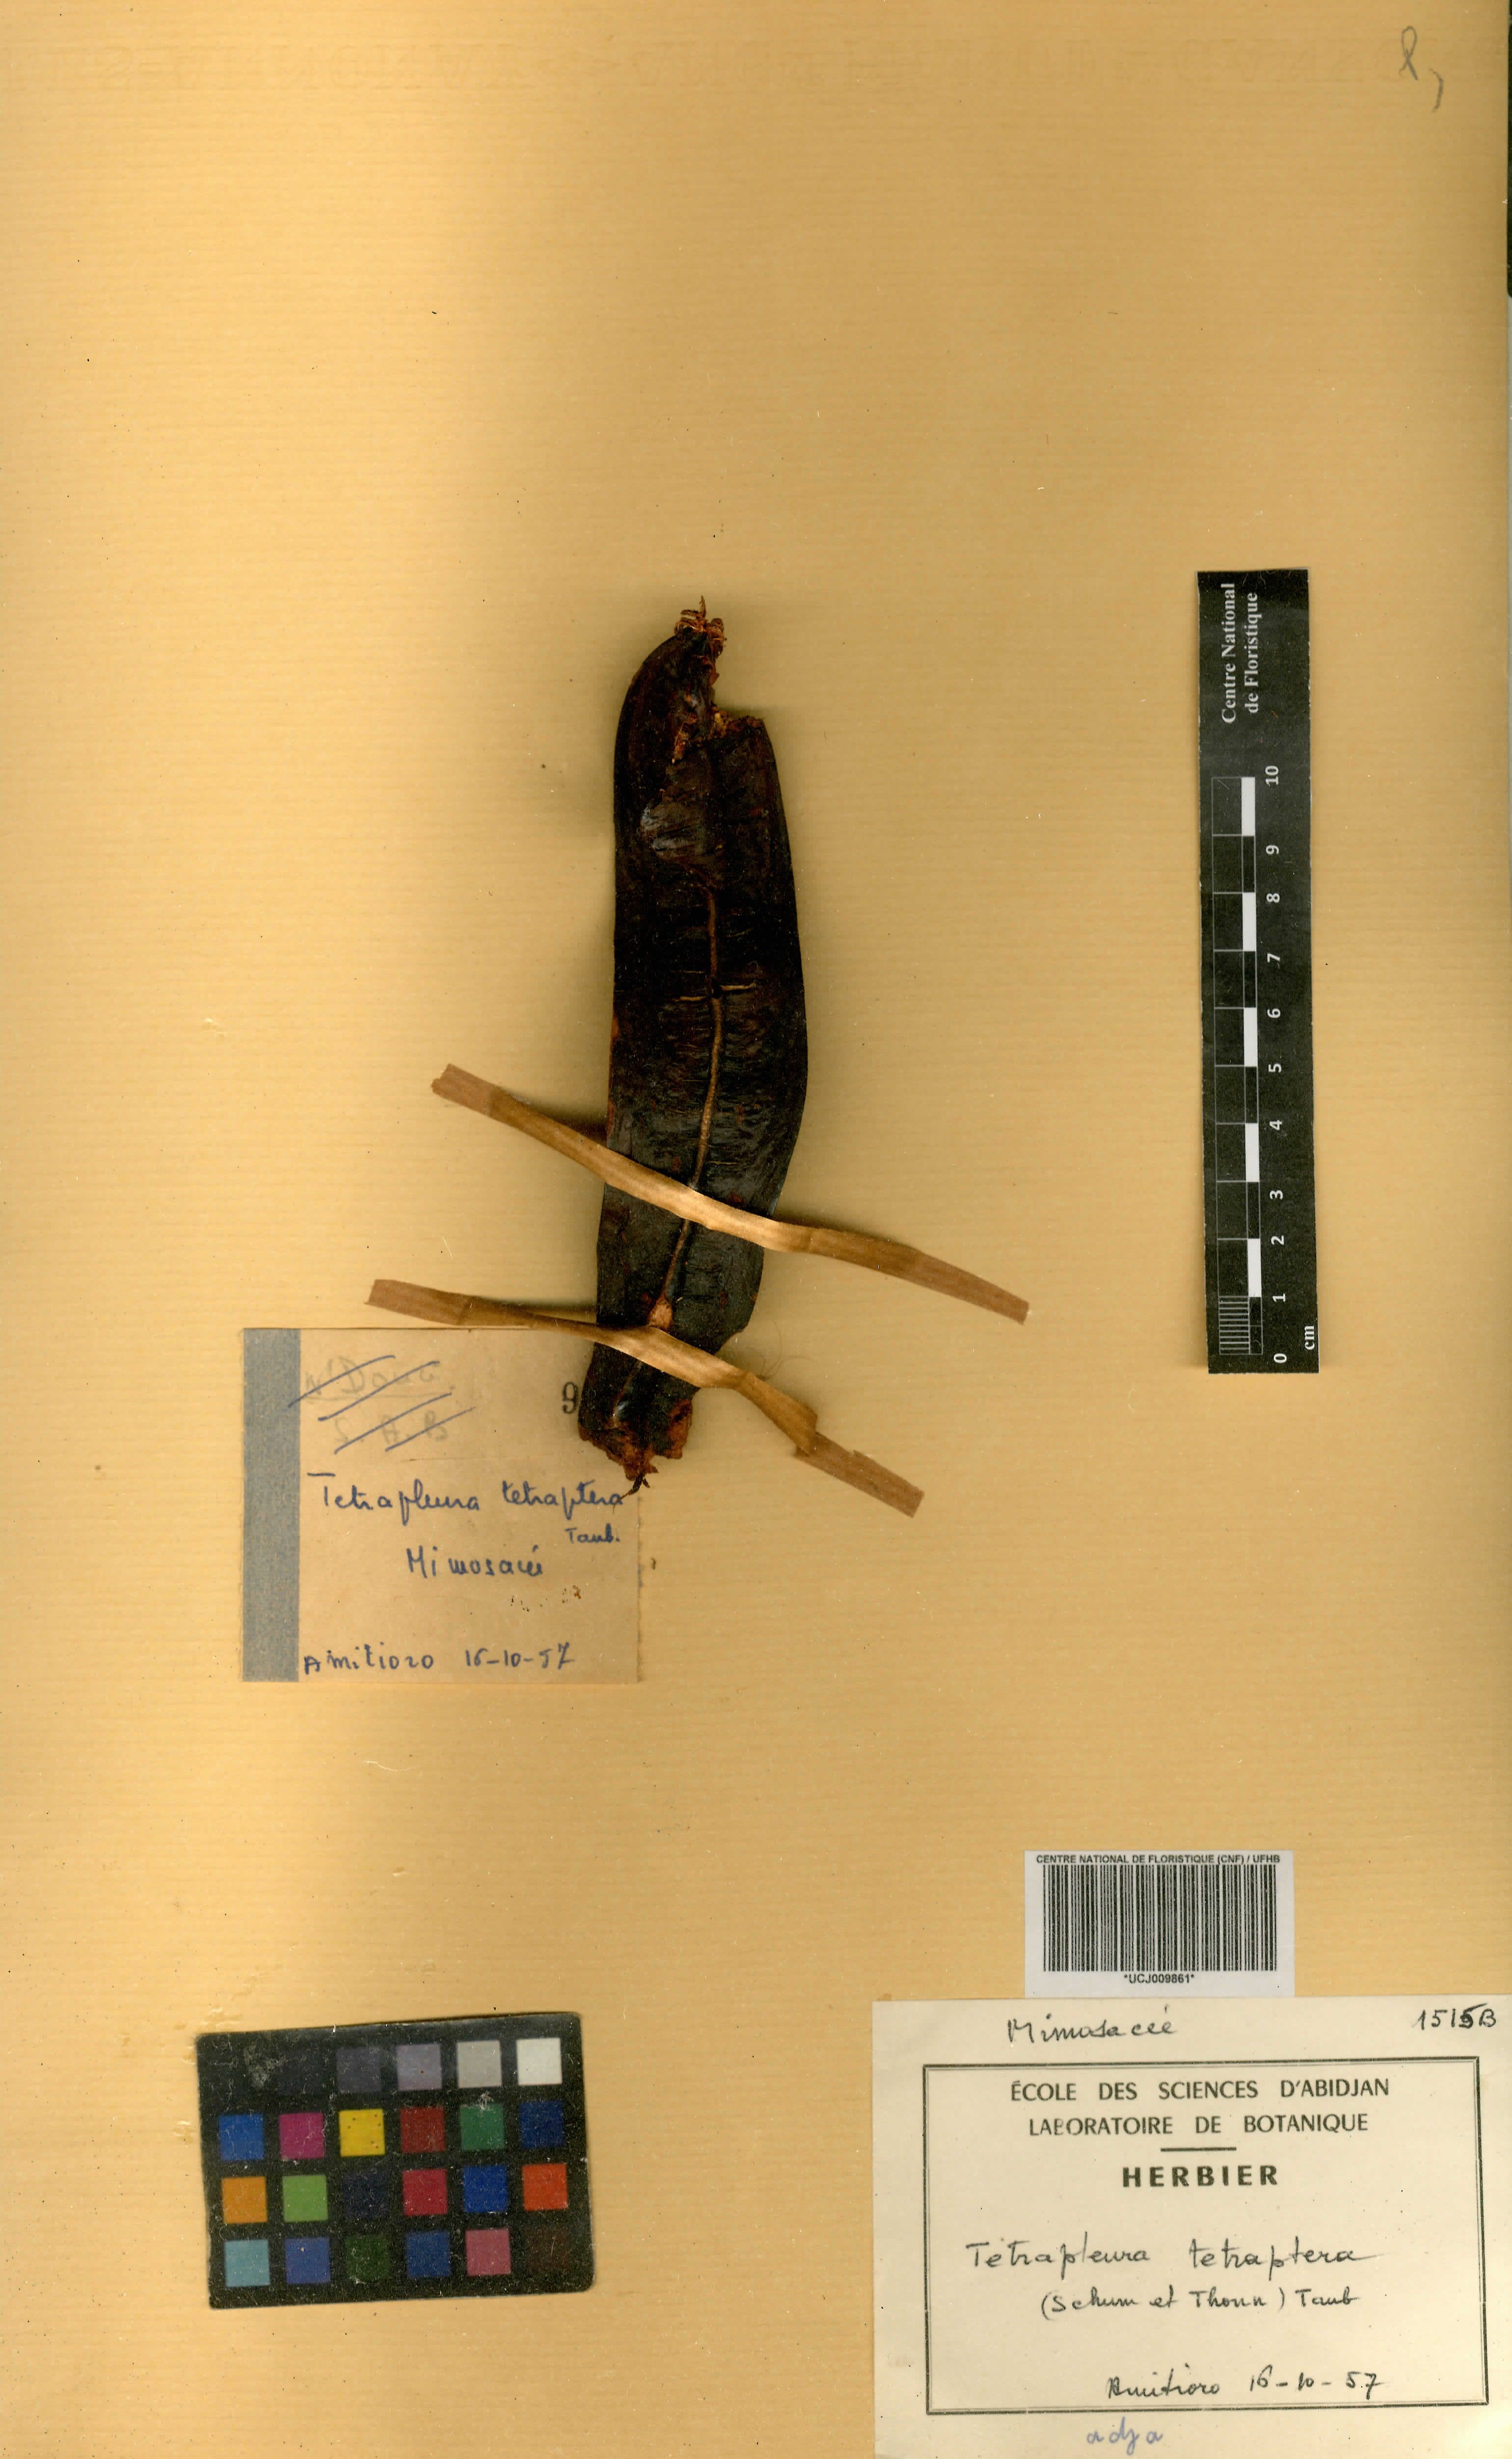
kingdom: Plantae
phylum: Tracheophyta
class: Magnoliopsida
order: Fabales
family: Fabaceae
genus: Tetrapleura
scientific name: Tetrapleura tetraptera
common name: Aridan
